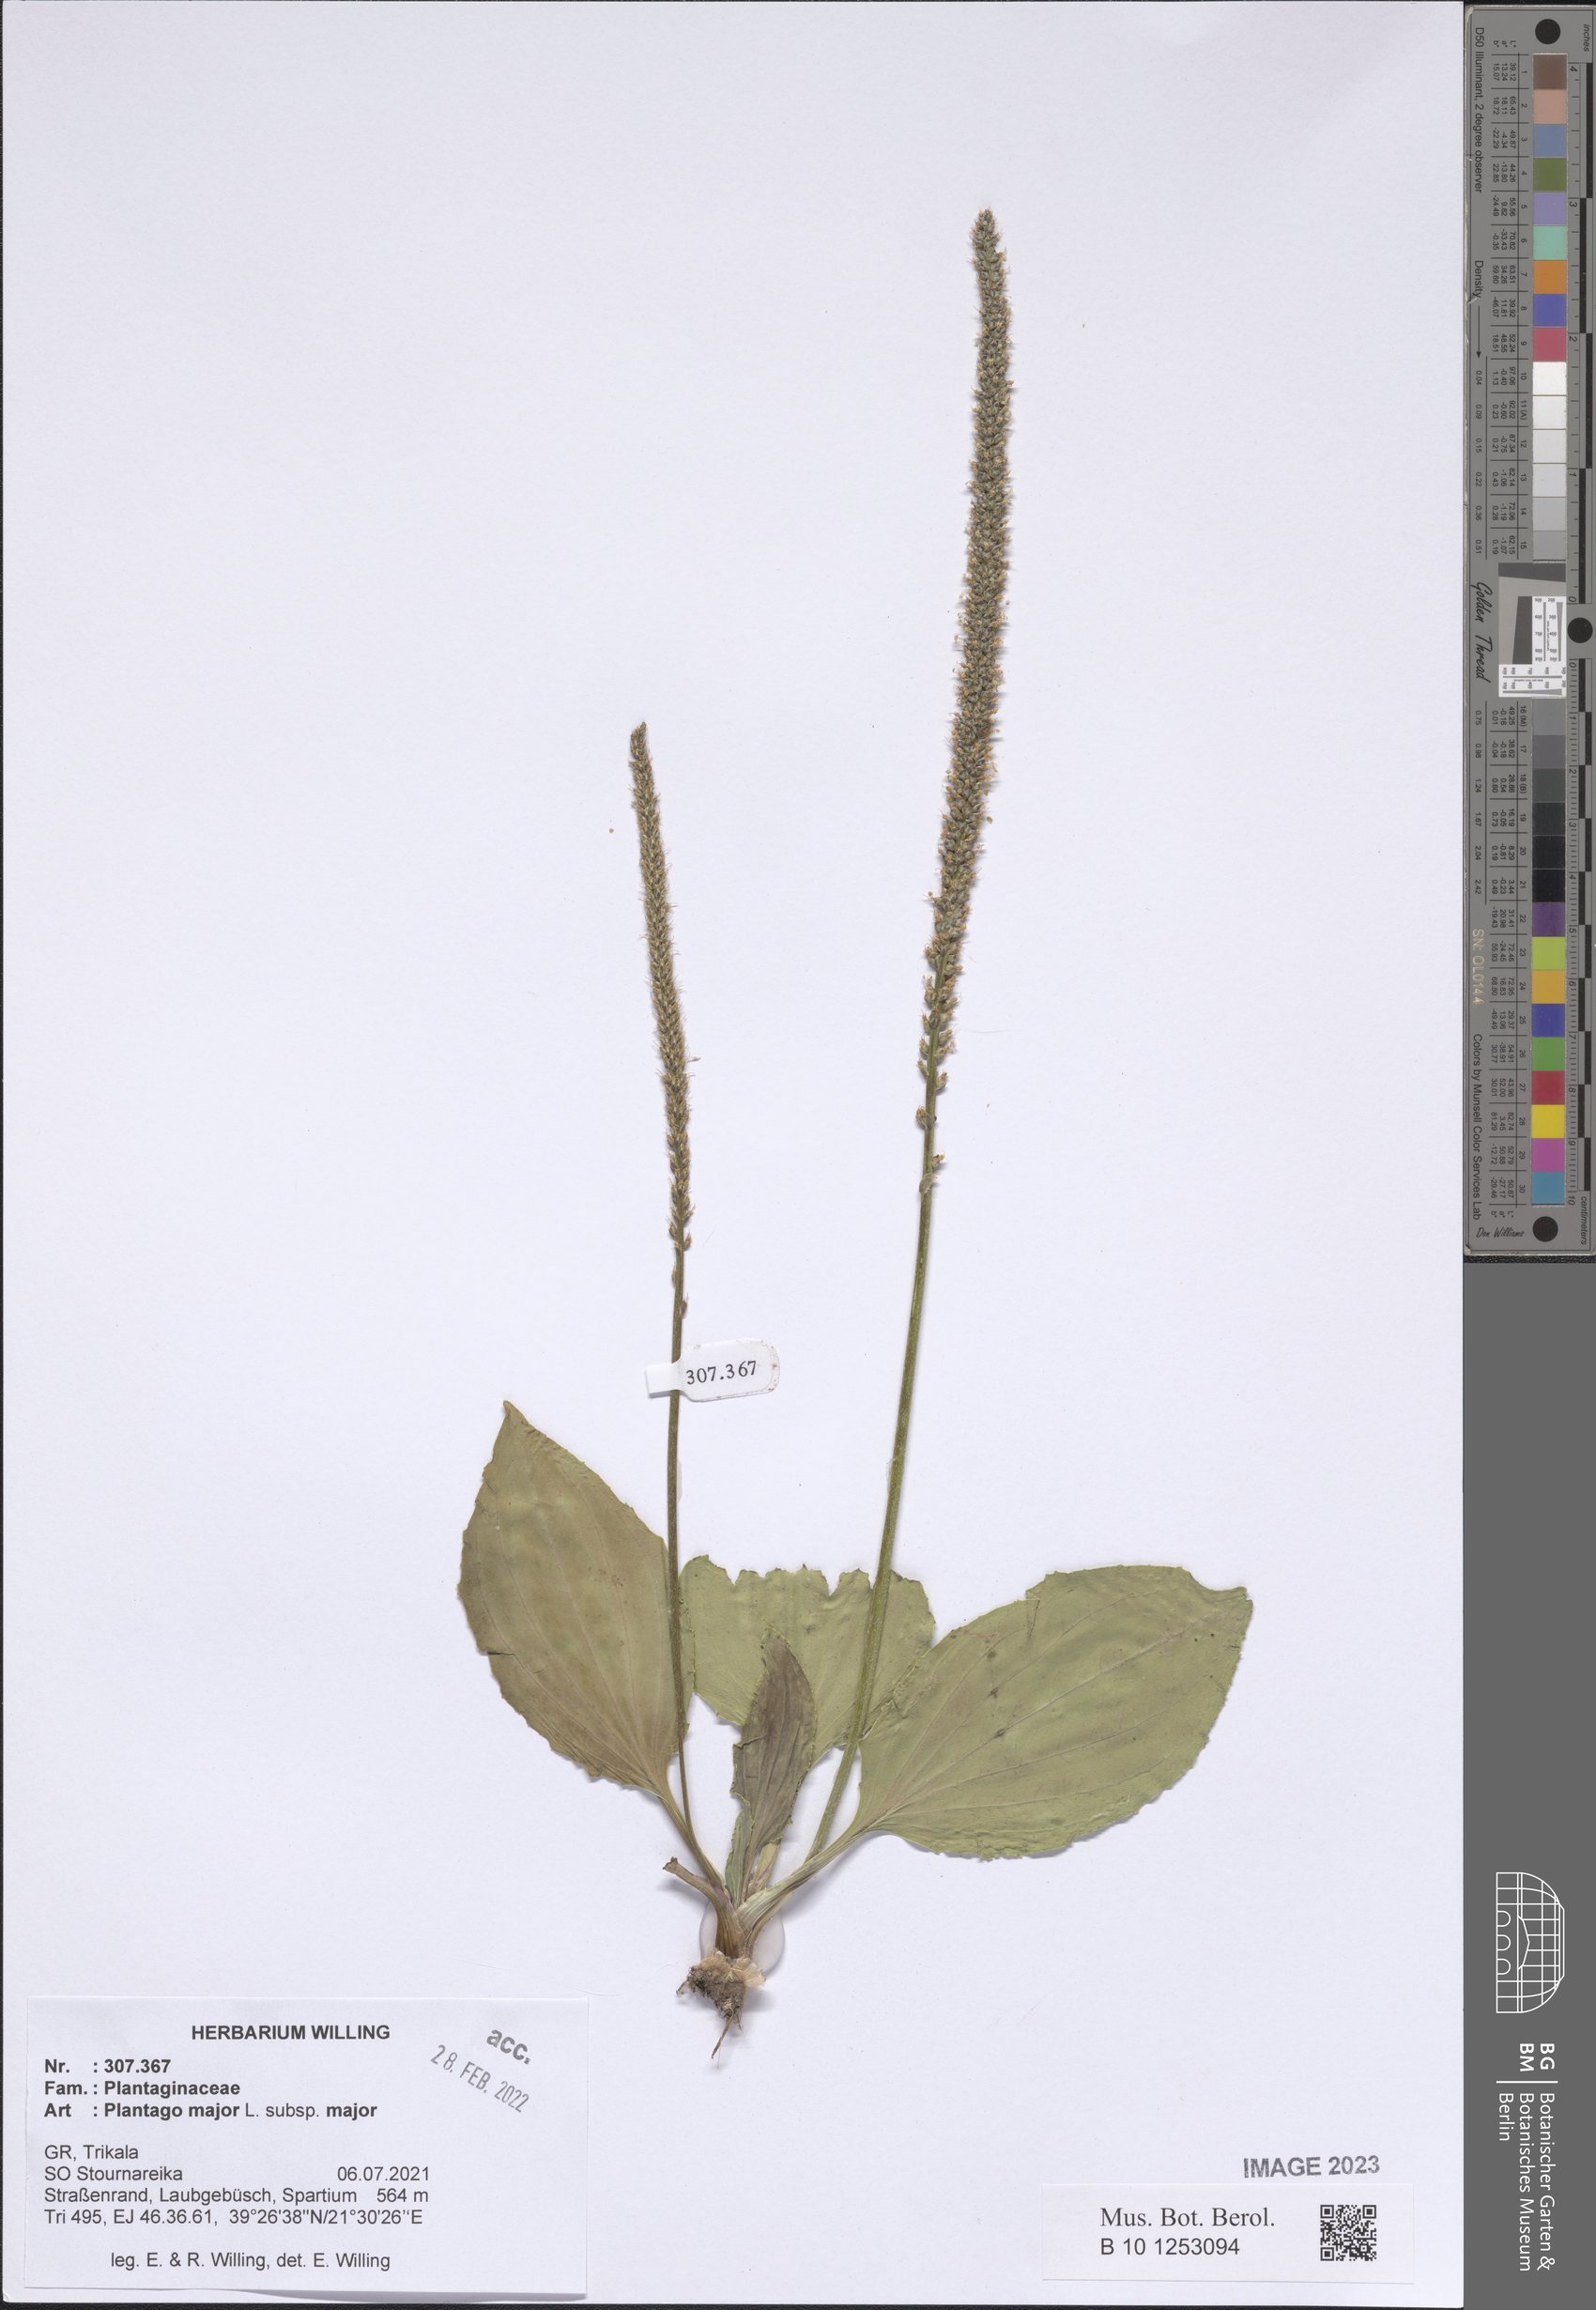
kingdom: Plantae
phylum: Tracheophyta
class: Magnoliopsida
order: Lamiales
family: Plantaginaceae
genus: Plantago
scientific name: Plantago major
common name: Common plantain
